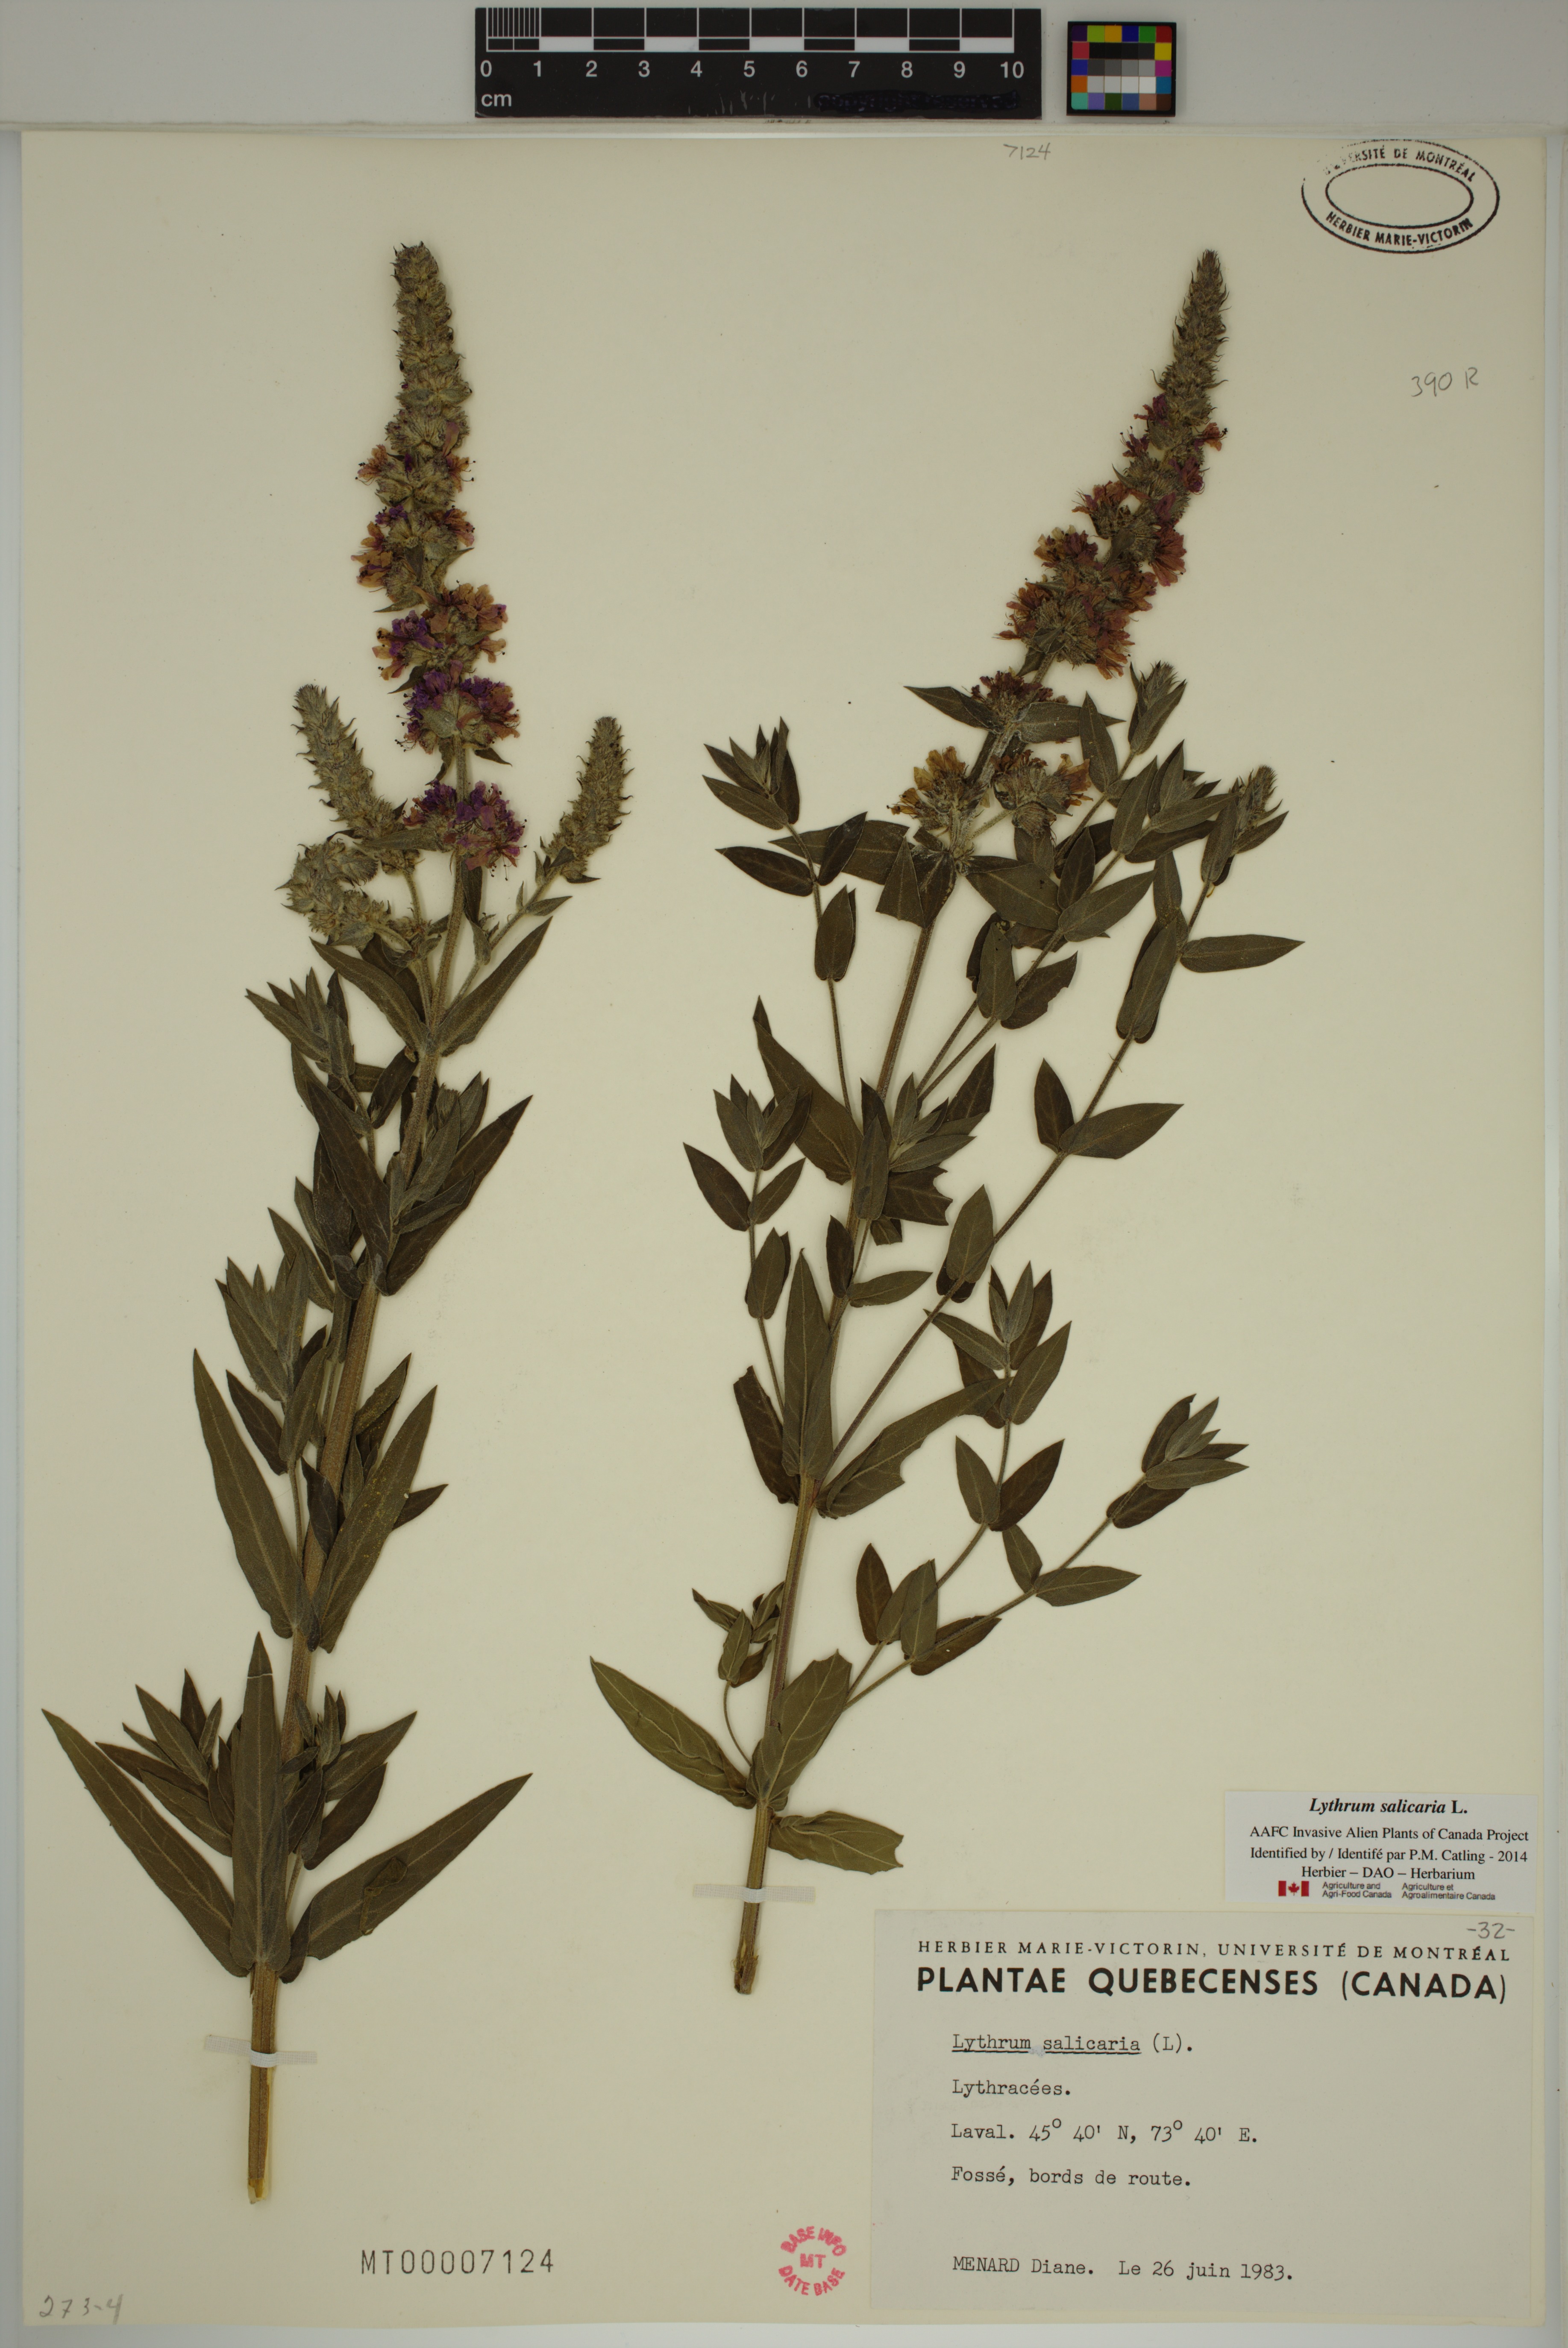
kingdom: Plantae
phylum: Tracheophyta
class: Magnoliopsida
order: Myrtales
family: Lythraceae
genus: Lythrum
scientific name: Lythrum salicaria
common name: Purple loosestrife
